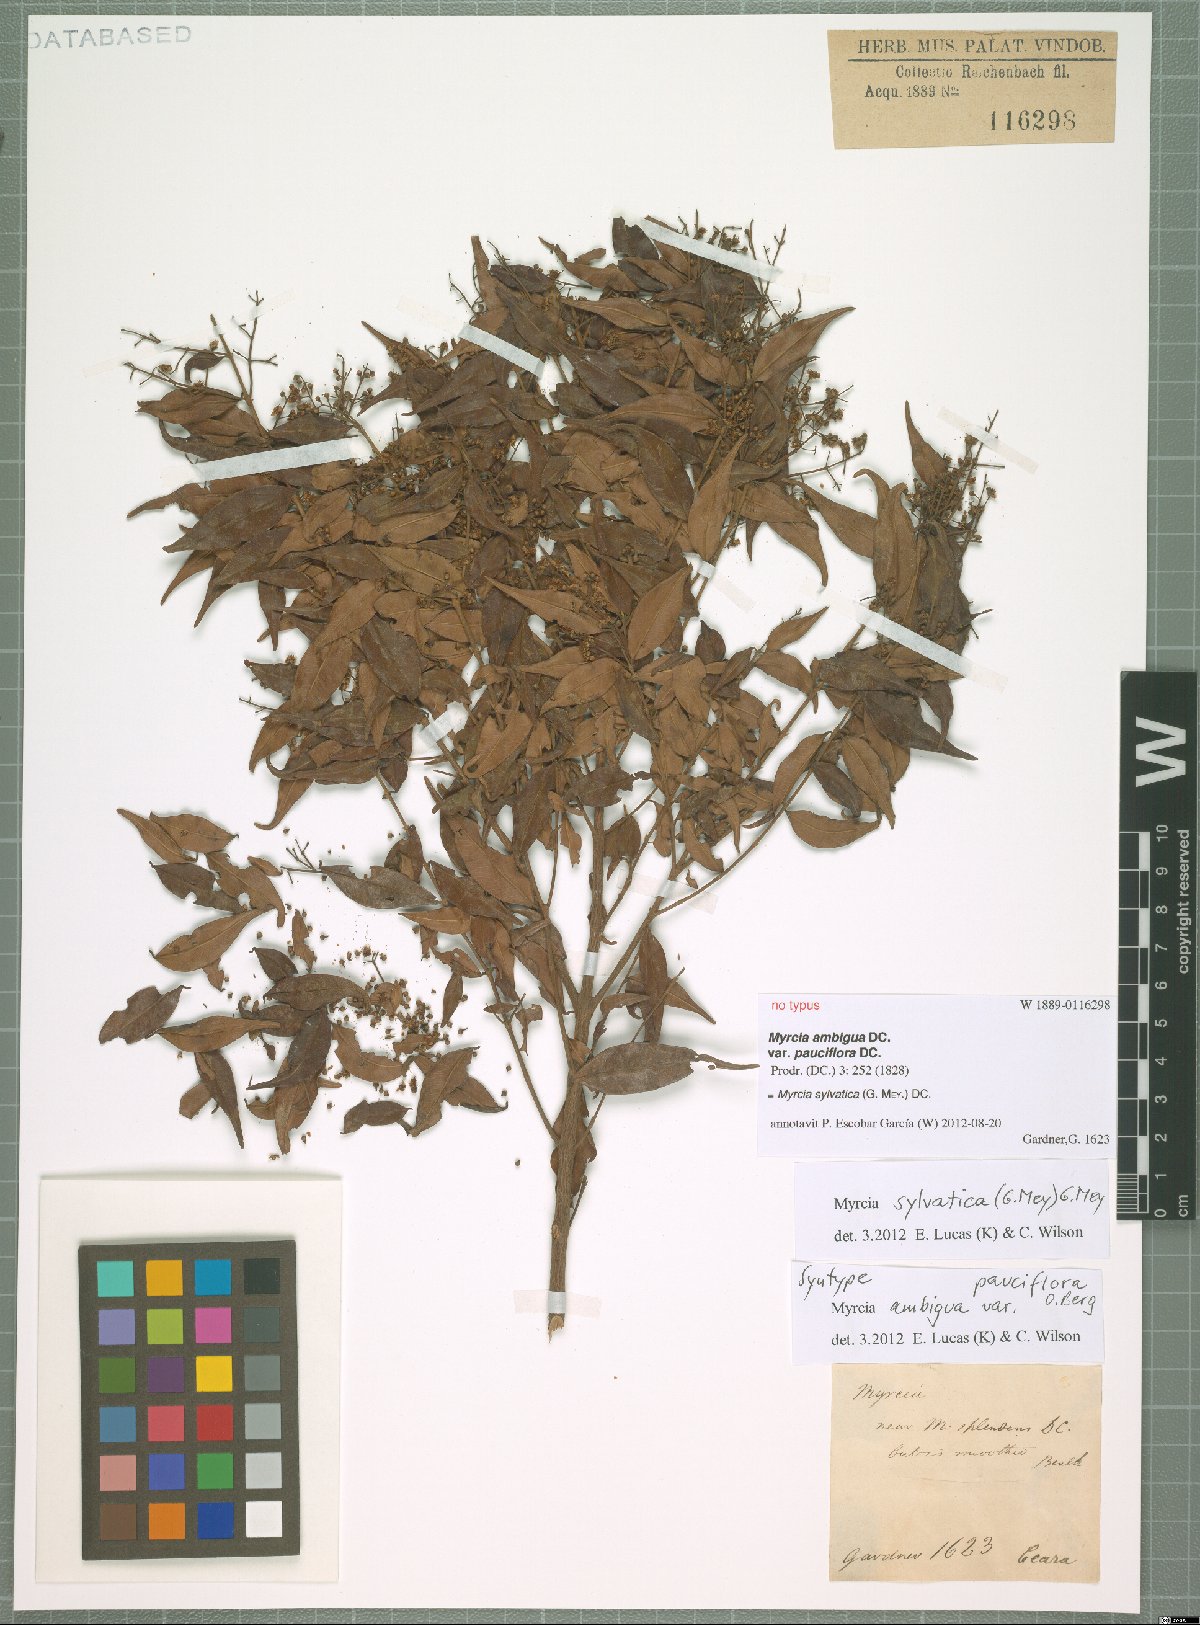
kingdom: Plantae
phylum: Tracheophyta
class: Magnoliopsida
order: Myrtales
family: Myrtaceae
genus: Myrcia
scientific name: Myrcia sylvatica
